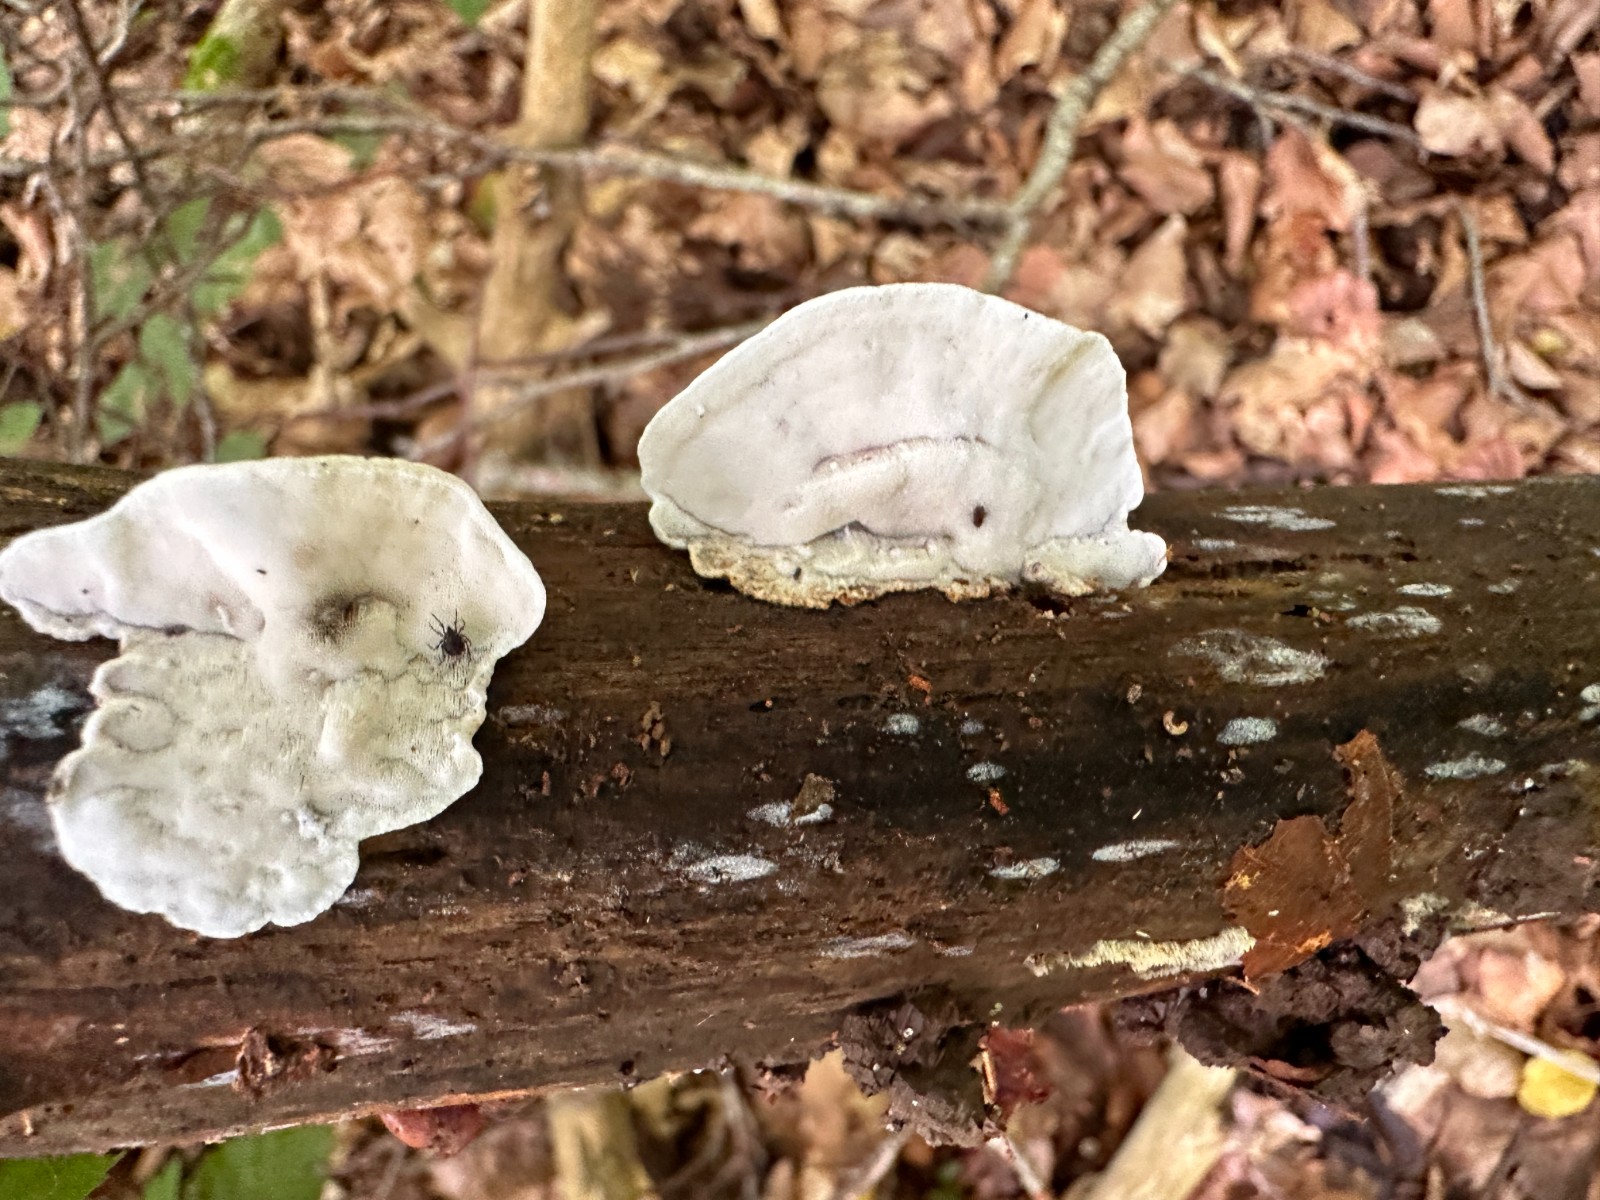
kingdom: Fungi
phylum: Basidiomycota
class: Agaricomycetes
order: Polyporales
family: Incrustoporiaceae
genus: Skeletocutis
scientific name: Skeletocutis nemoralis
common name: stor krystalporesvamp
